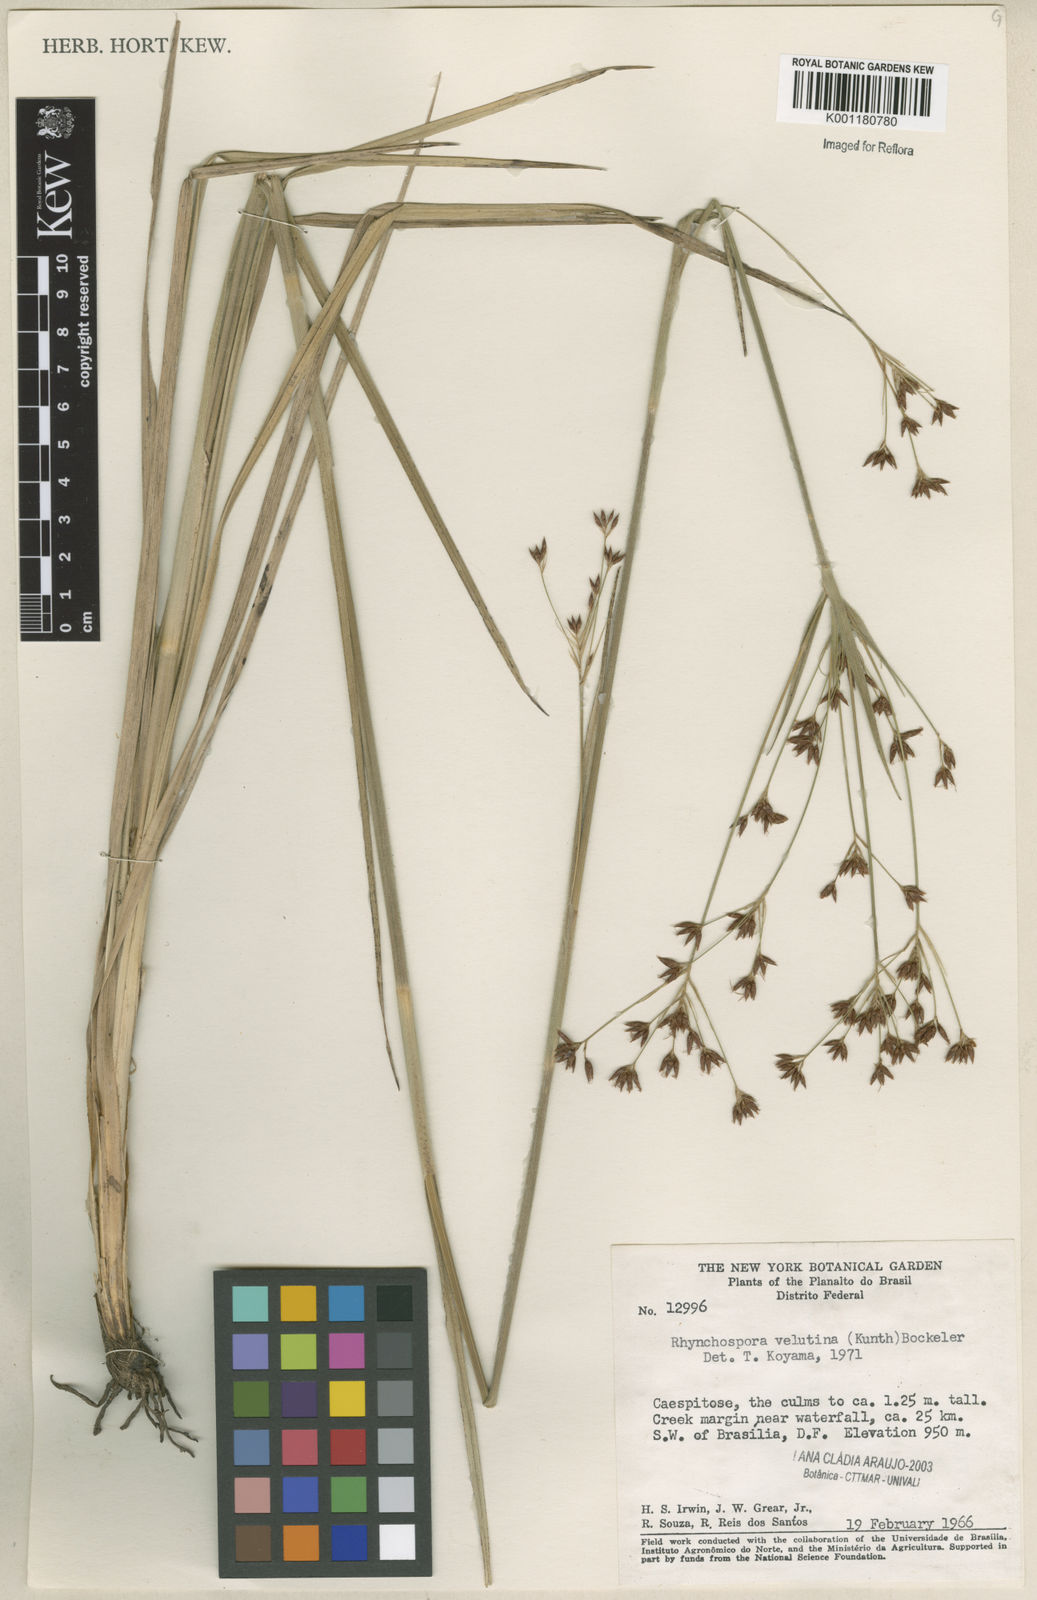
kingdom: Plantae
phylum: Tracheophyta
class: Liliopsida
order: Poales
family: Cyperaceae
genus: Rhynchospora
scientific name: Rhynchospora velutina
